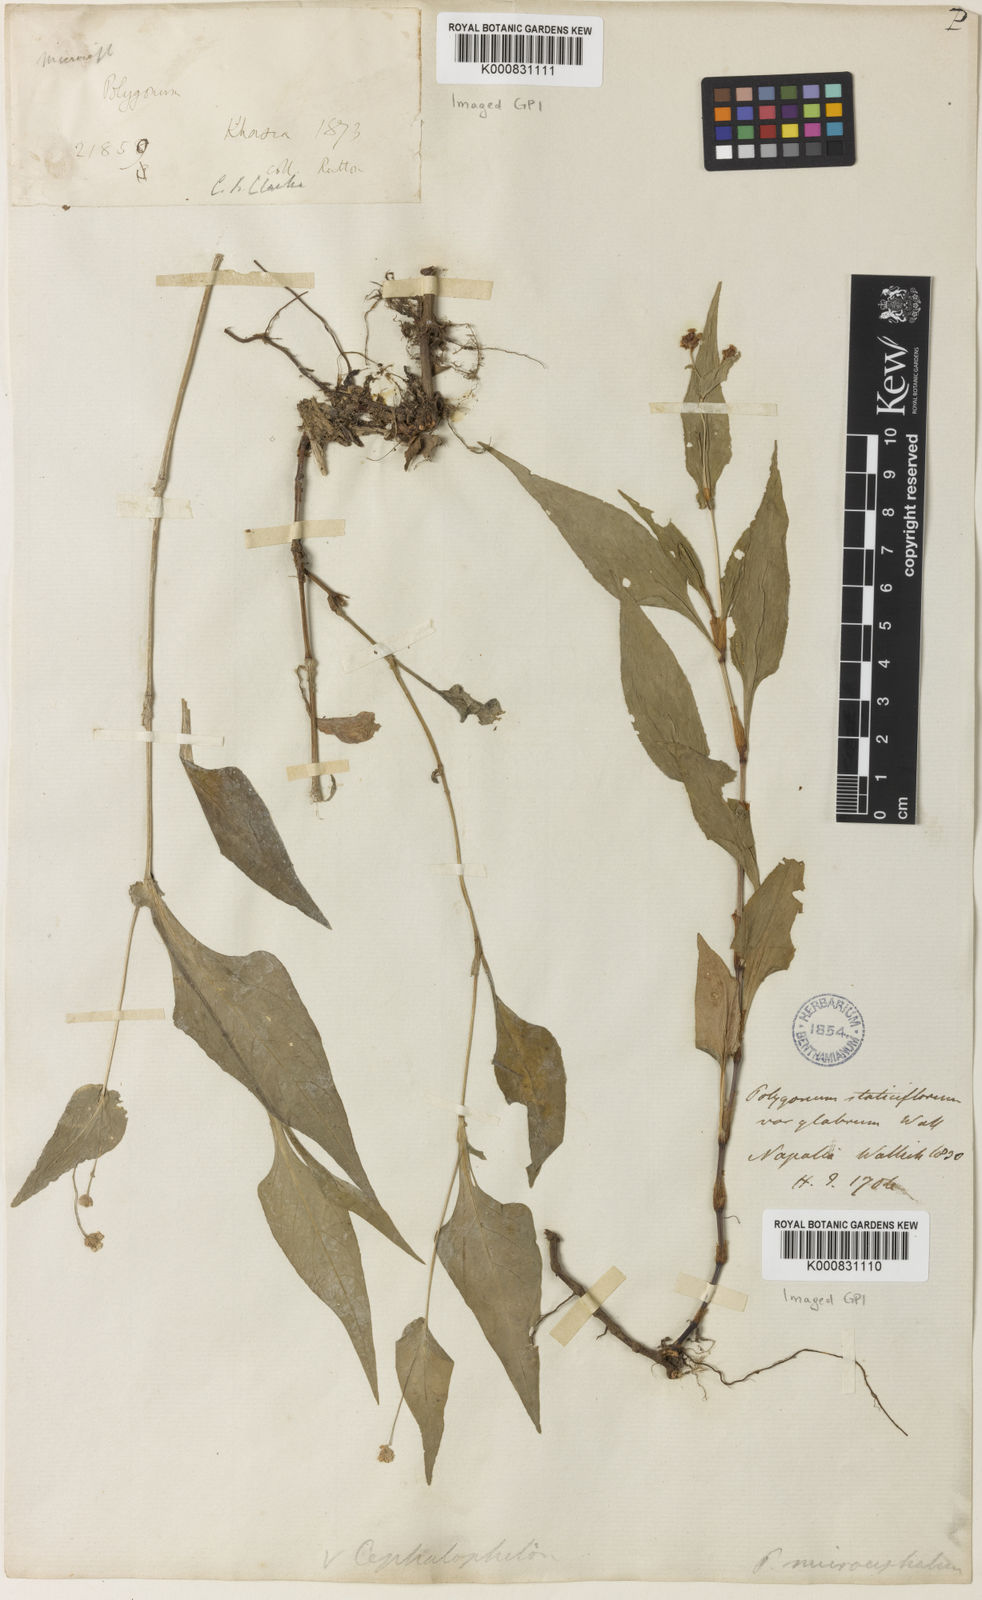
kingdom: Plantae
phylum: Tracheophyta
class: Magnoliopsida
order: Caryophyllales
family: Polygonaceae
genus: Persicaria
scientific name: Persicaria microcephala
